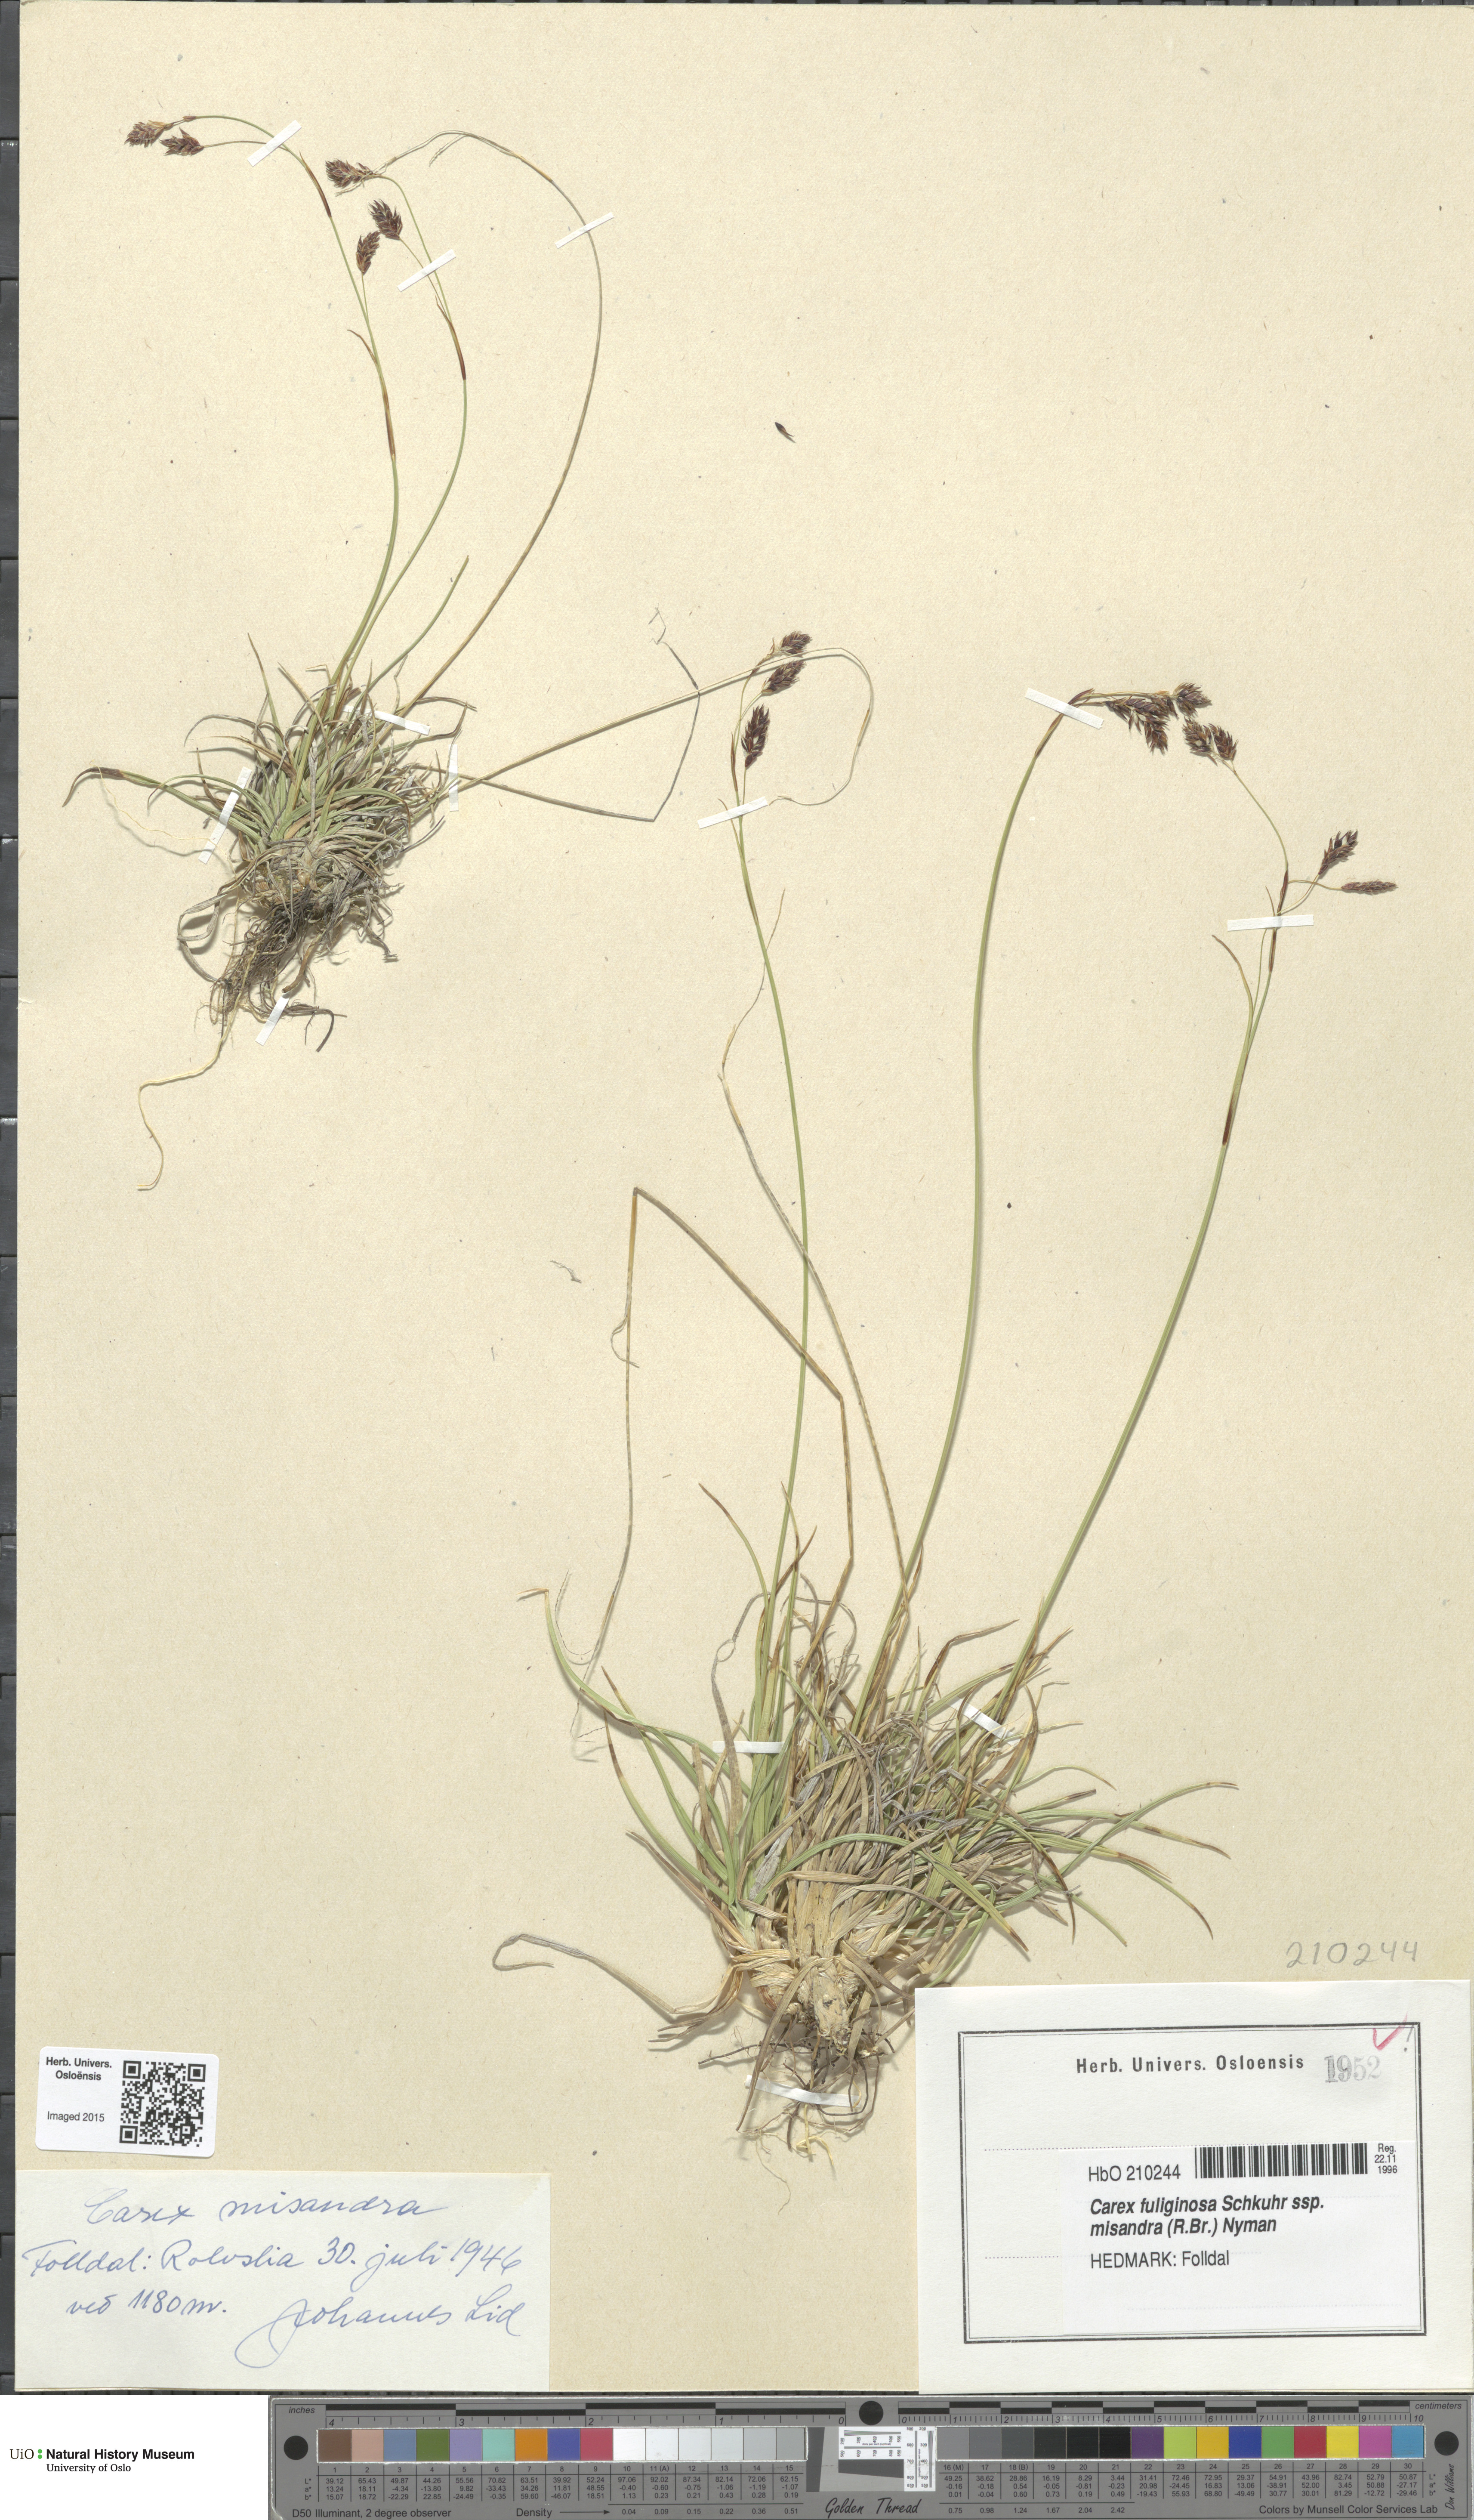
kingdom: Plantae
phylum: Tracheophyta
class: Liliopsida
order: Poales
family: Cyperaceae
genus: Carex
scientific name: Carex fuliginosa
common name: Few-flowered sedge
